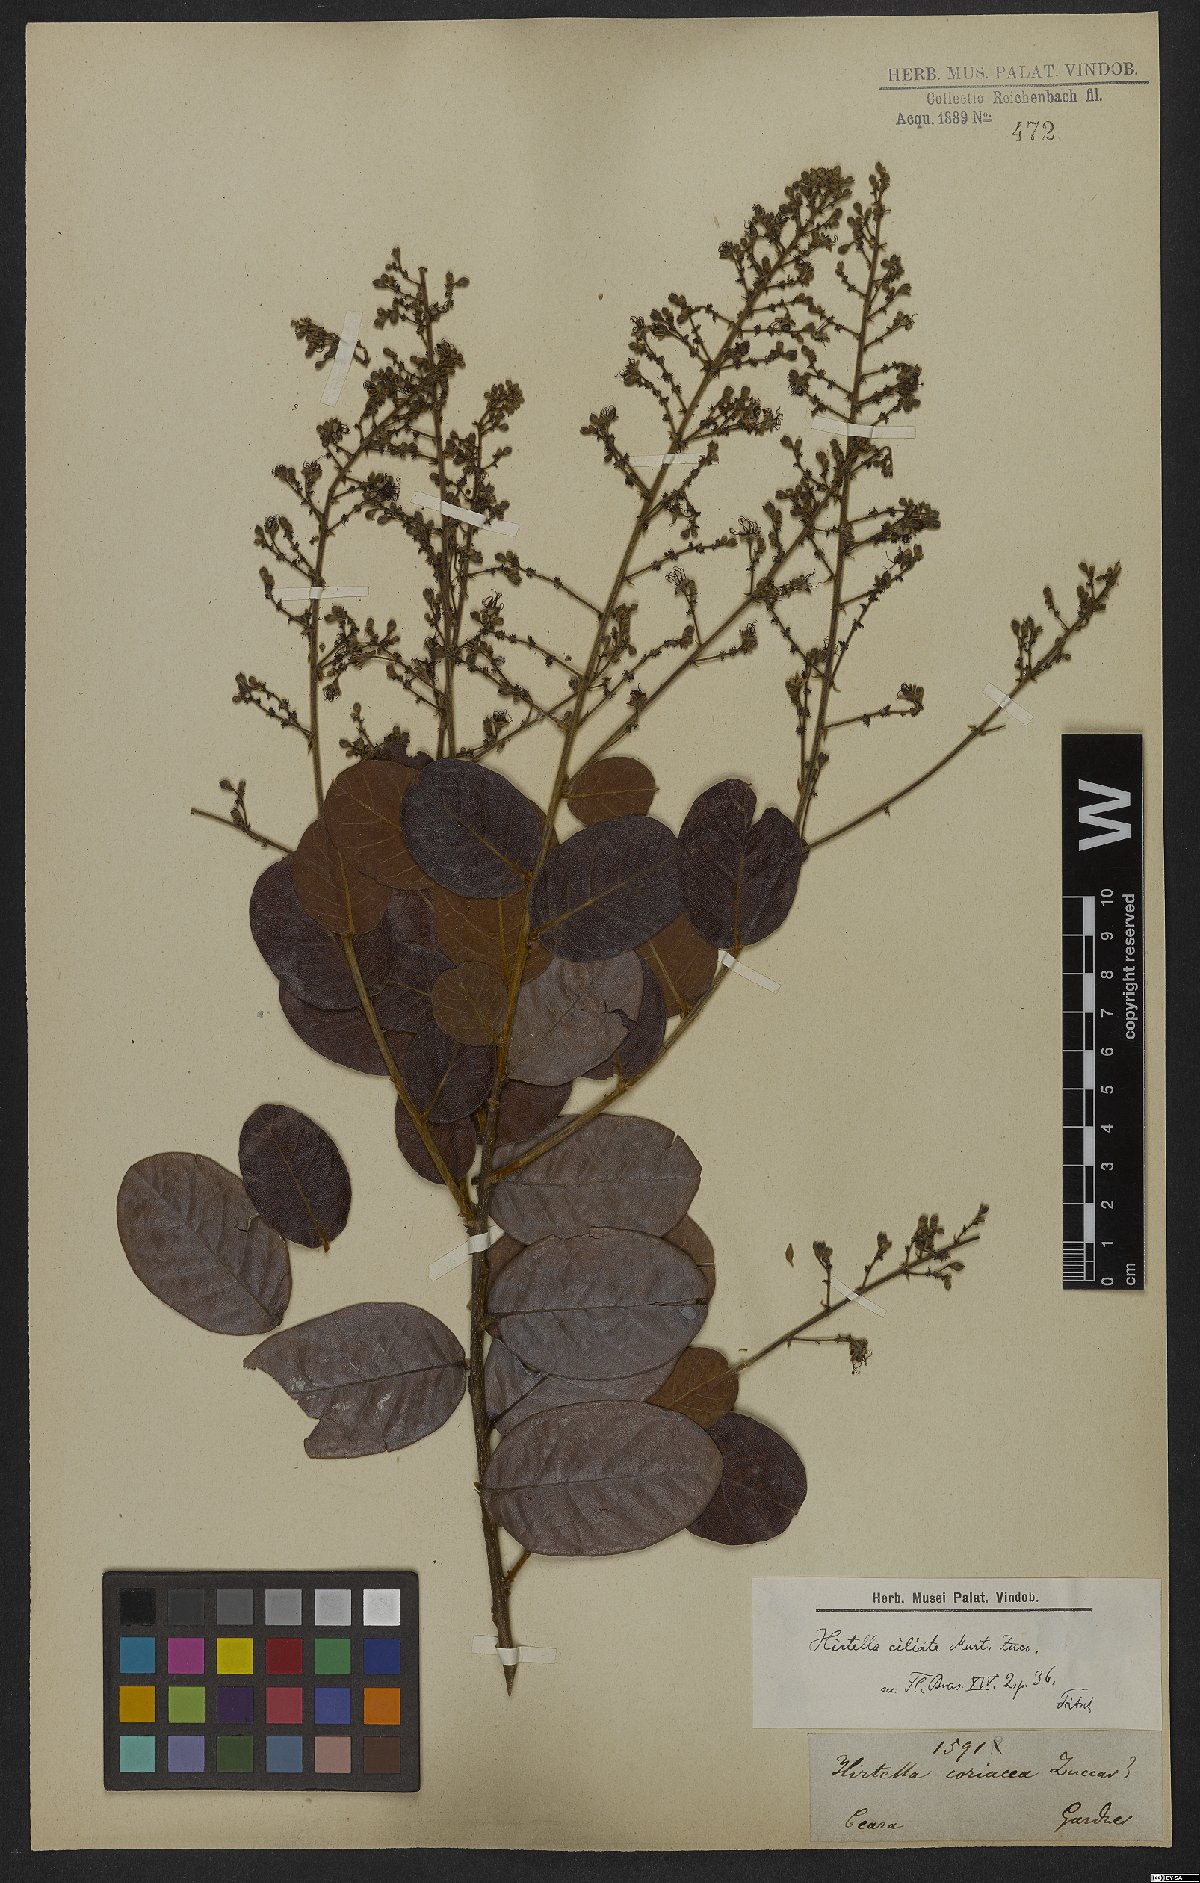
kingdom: Plantae
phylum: Tracheophyta
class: Magnoliopsida
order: Malpighiales
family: Chrysobalanaceae
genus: Hirtella
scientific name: Hirtella ciliata
